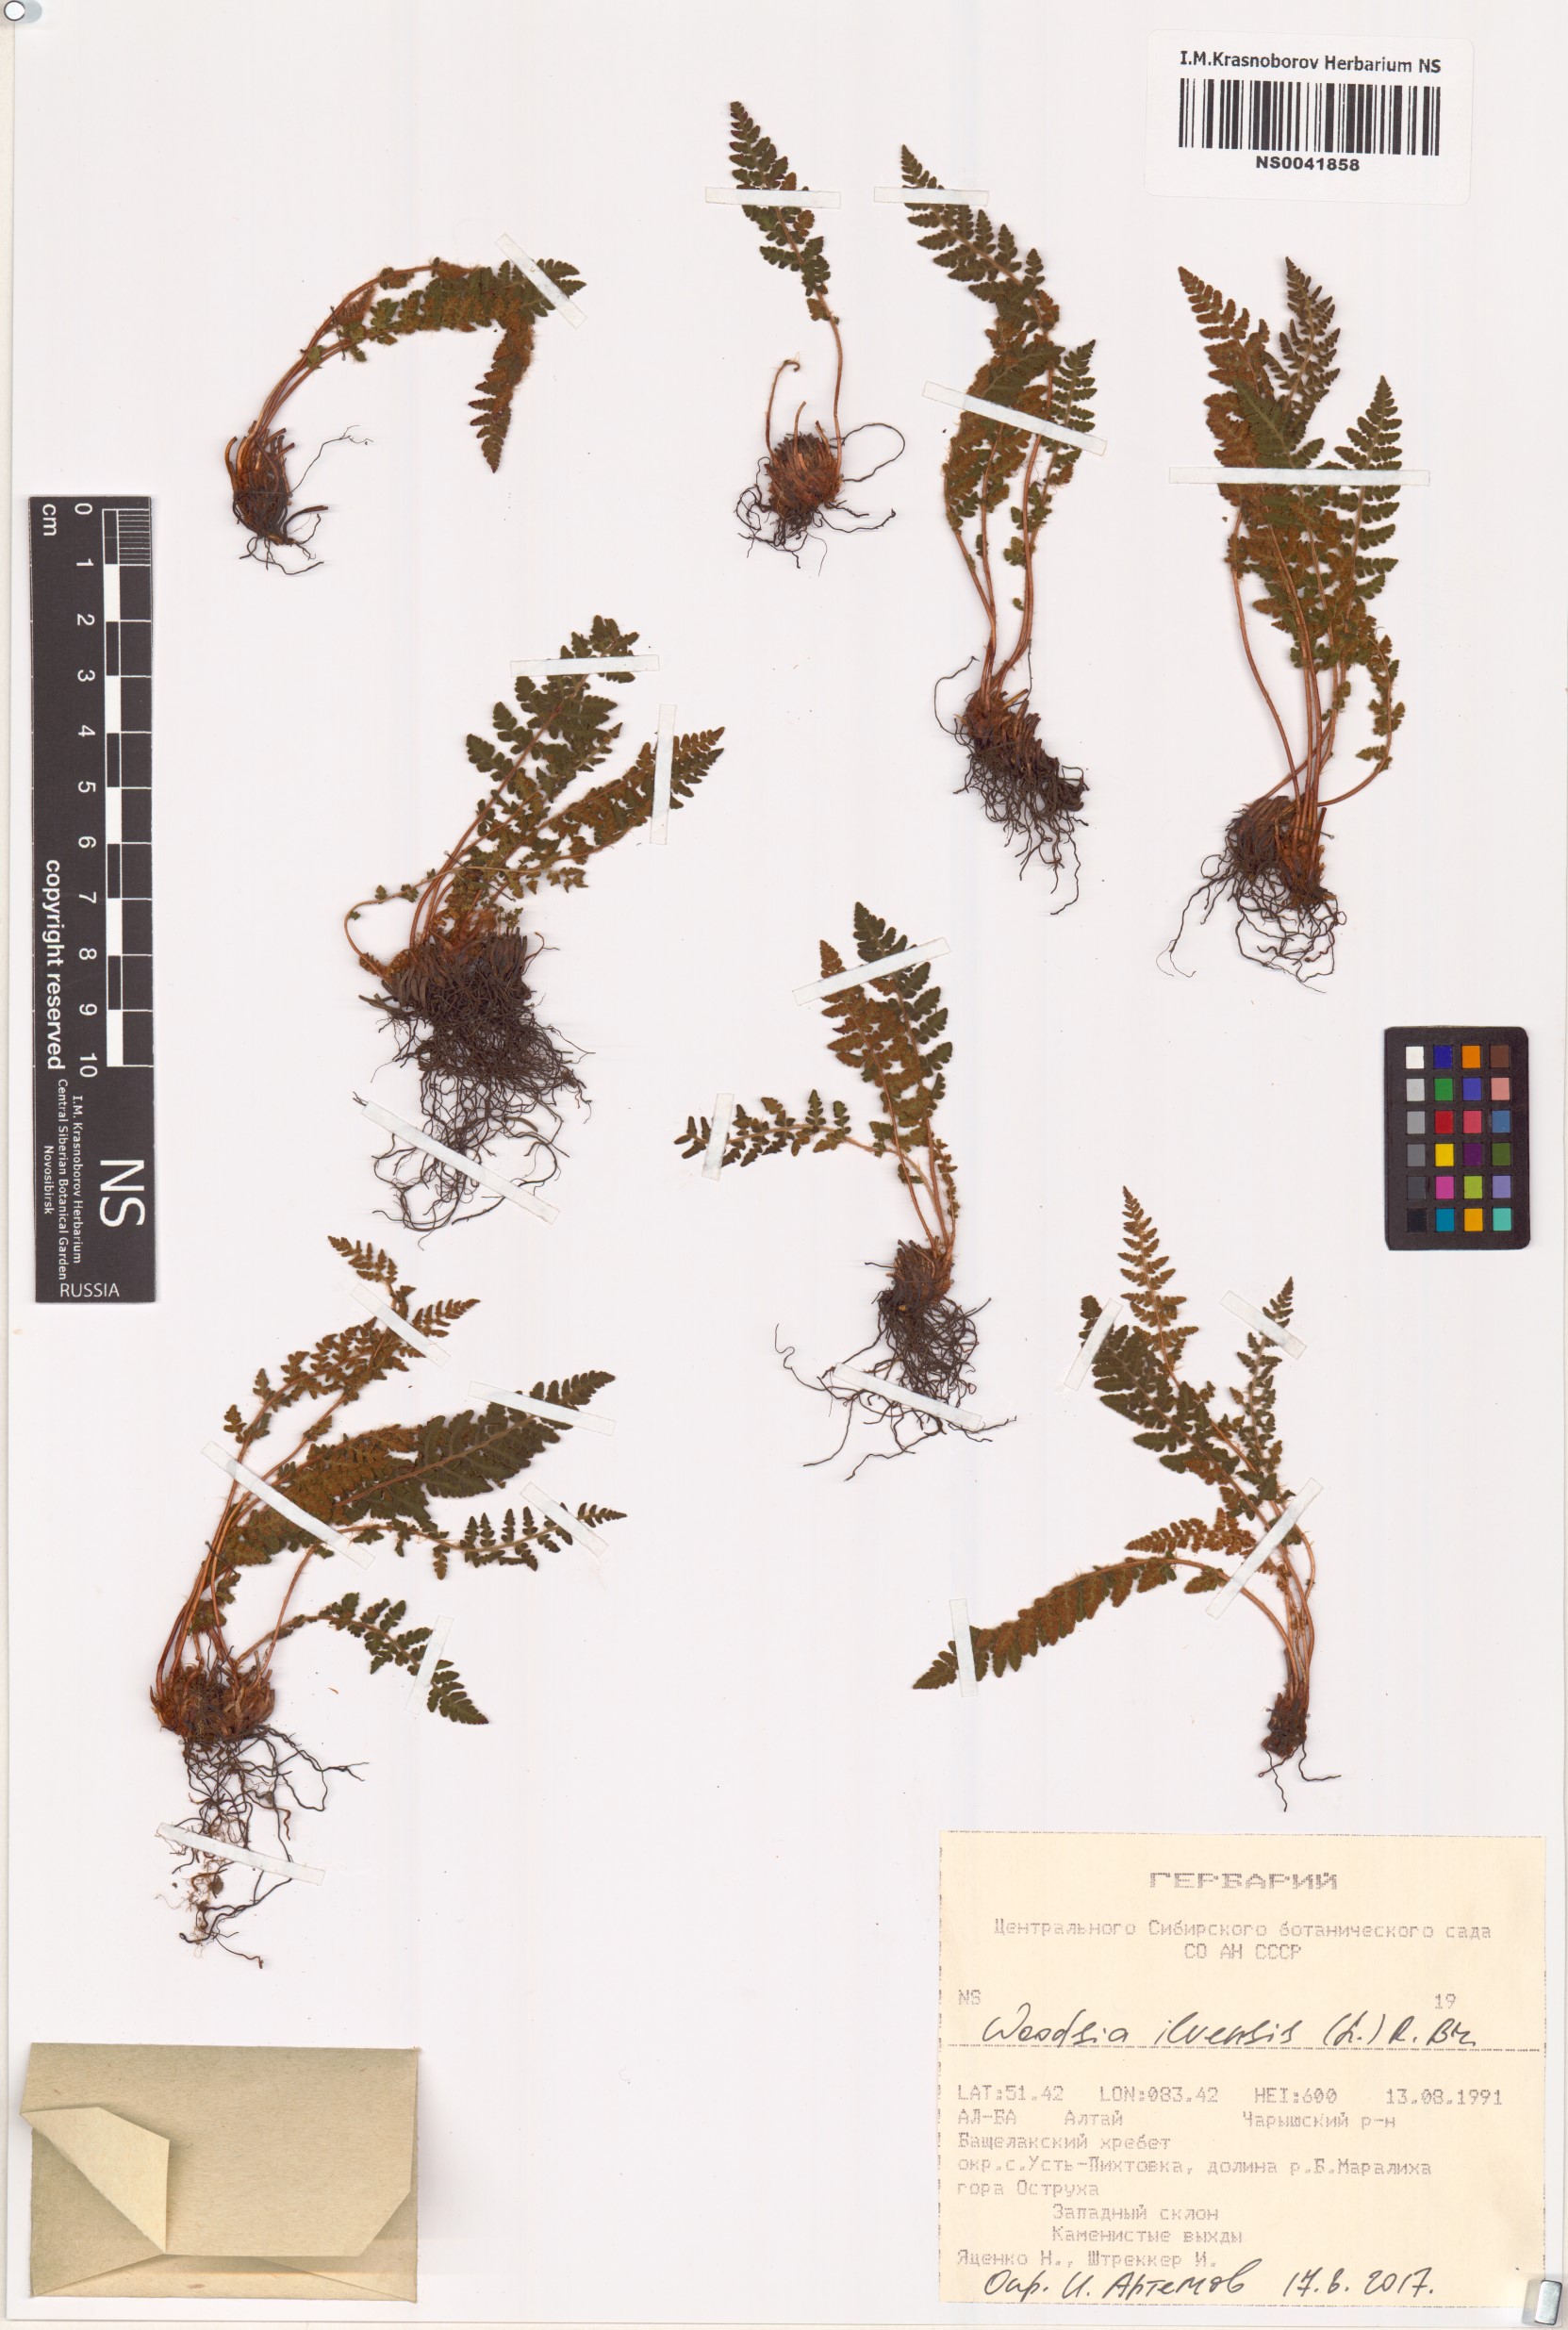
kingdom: Plantae
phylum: Tracheophyta
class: Polypodiopsida
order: Polypodiales
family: Woodsiaceae
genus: Woodsia
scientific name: Woodsia ilvensis
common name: Fragrant woodsia
